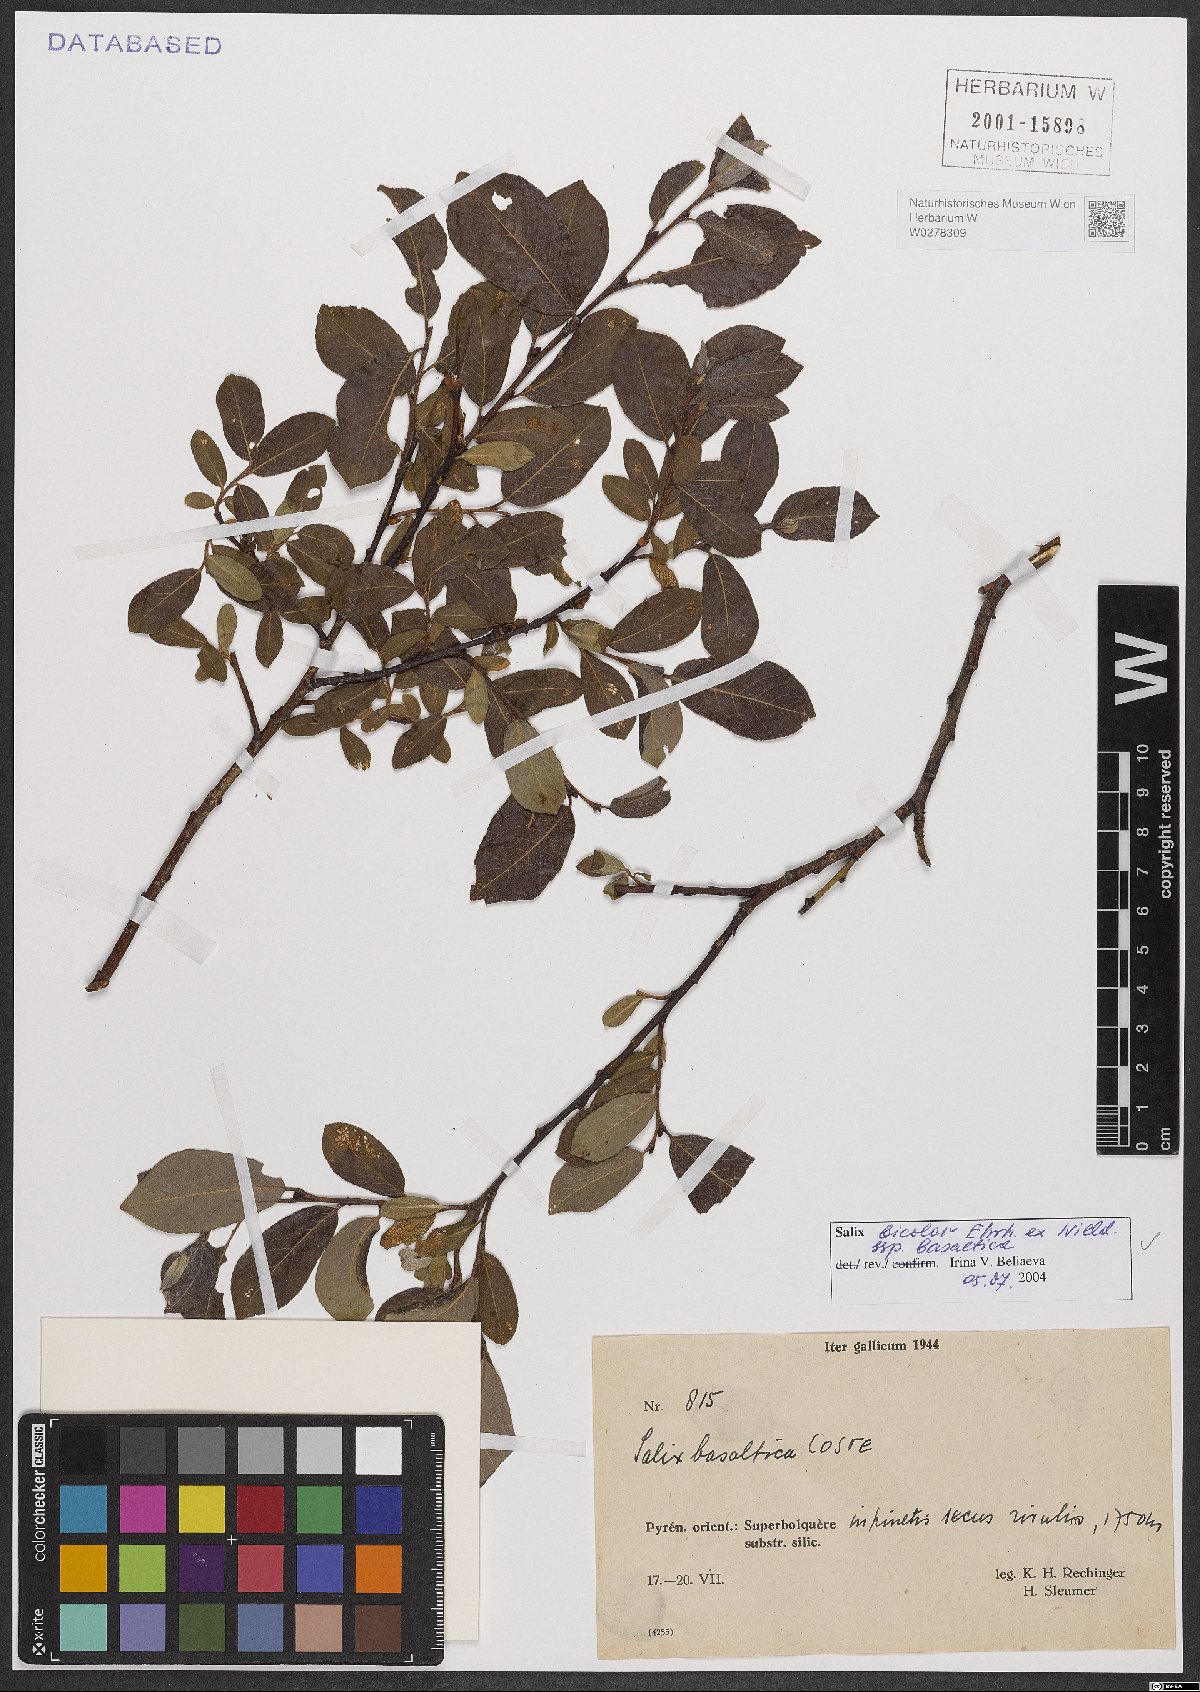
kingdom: Plantae
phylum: Tracheophyta
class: Magnoliopsida
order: Malpighiales
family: Salicaceae
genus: Salix
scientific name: Salix basaltica
